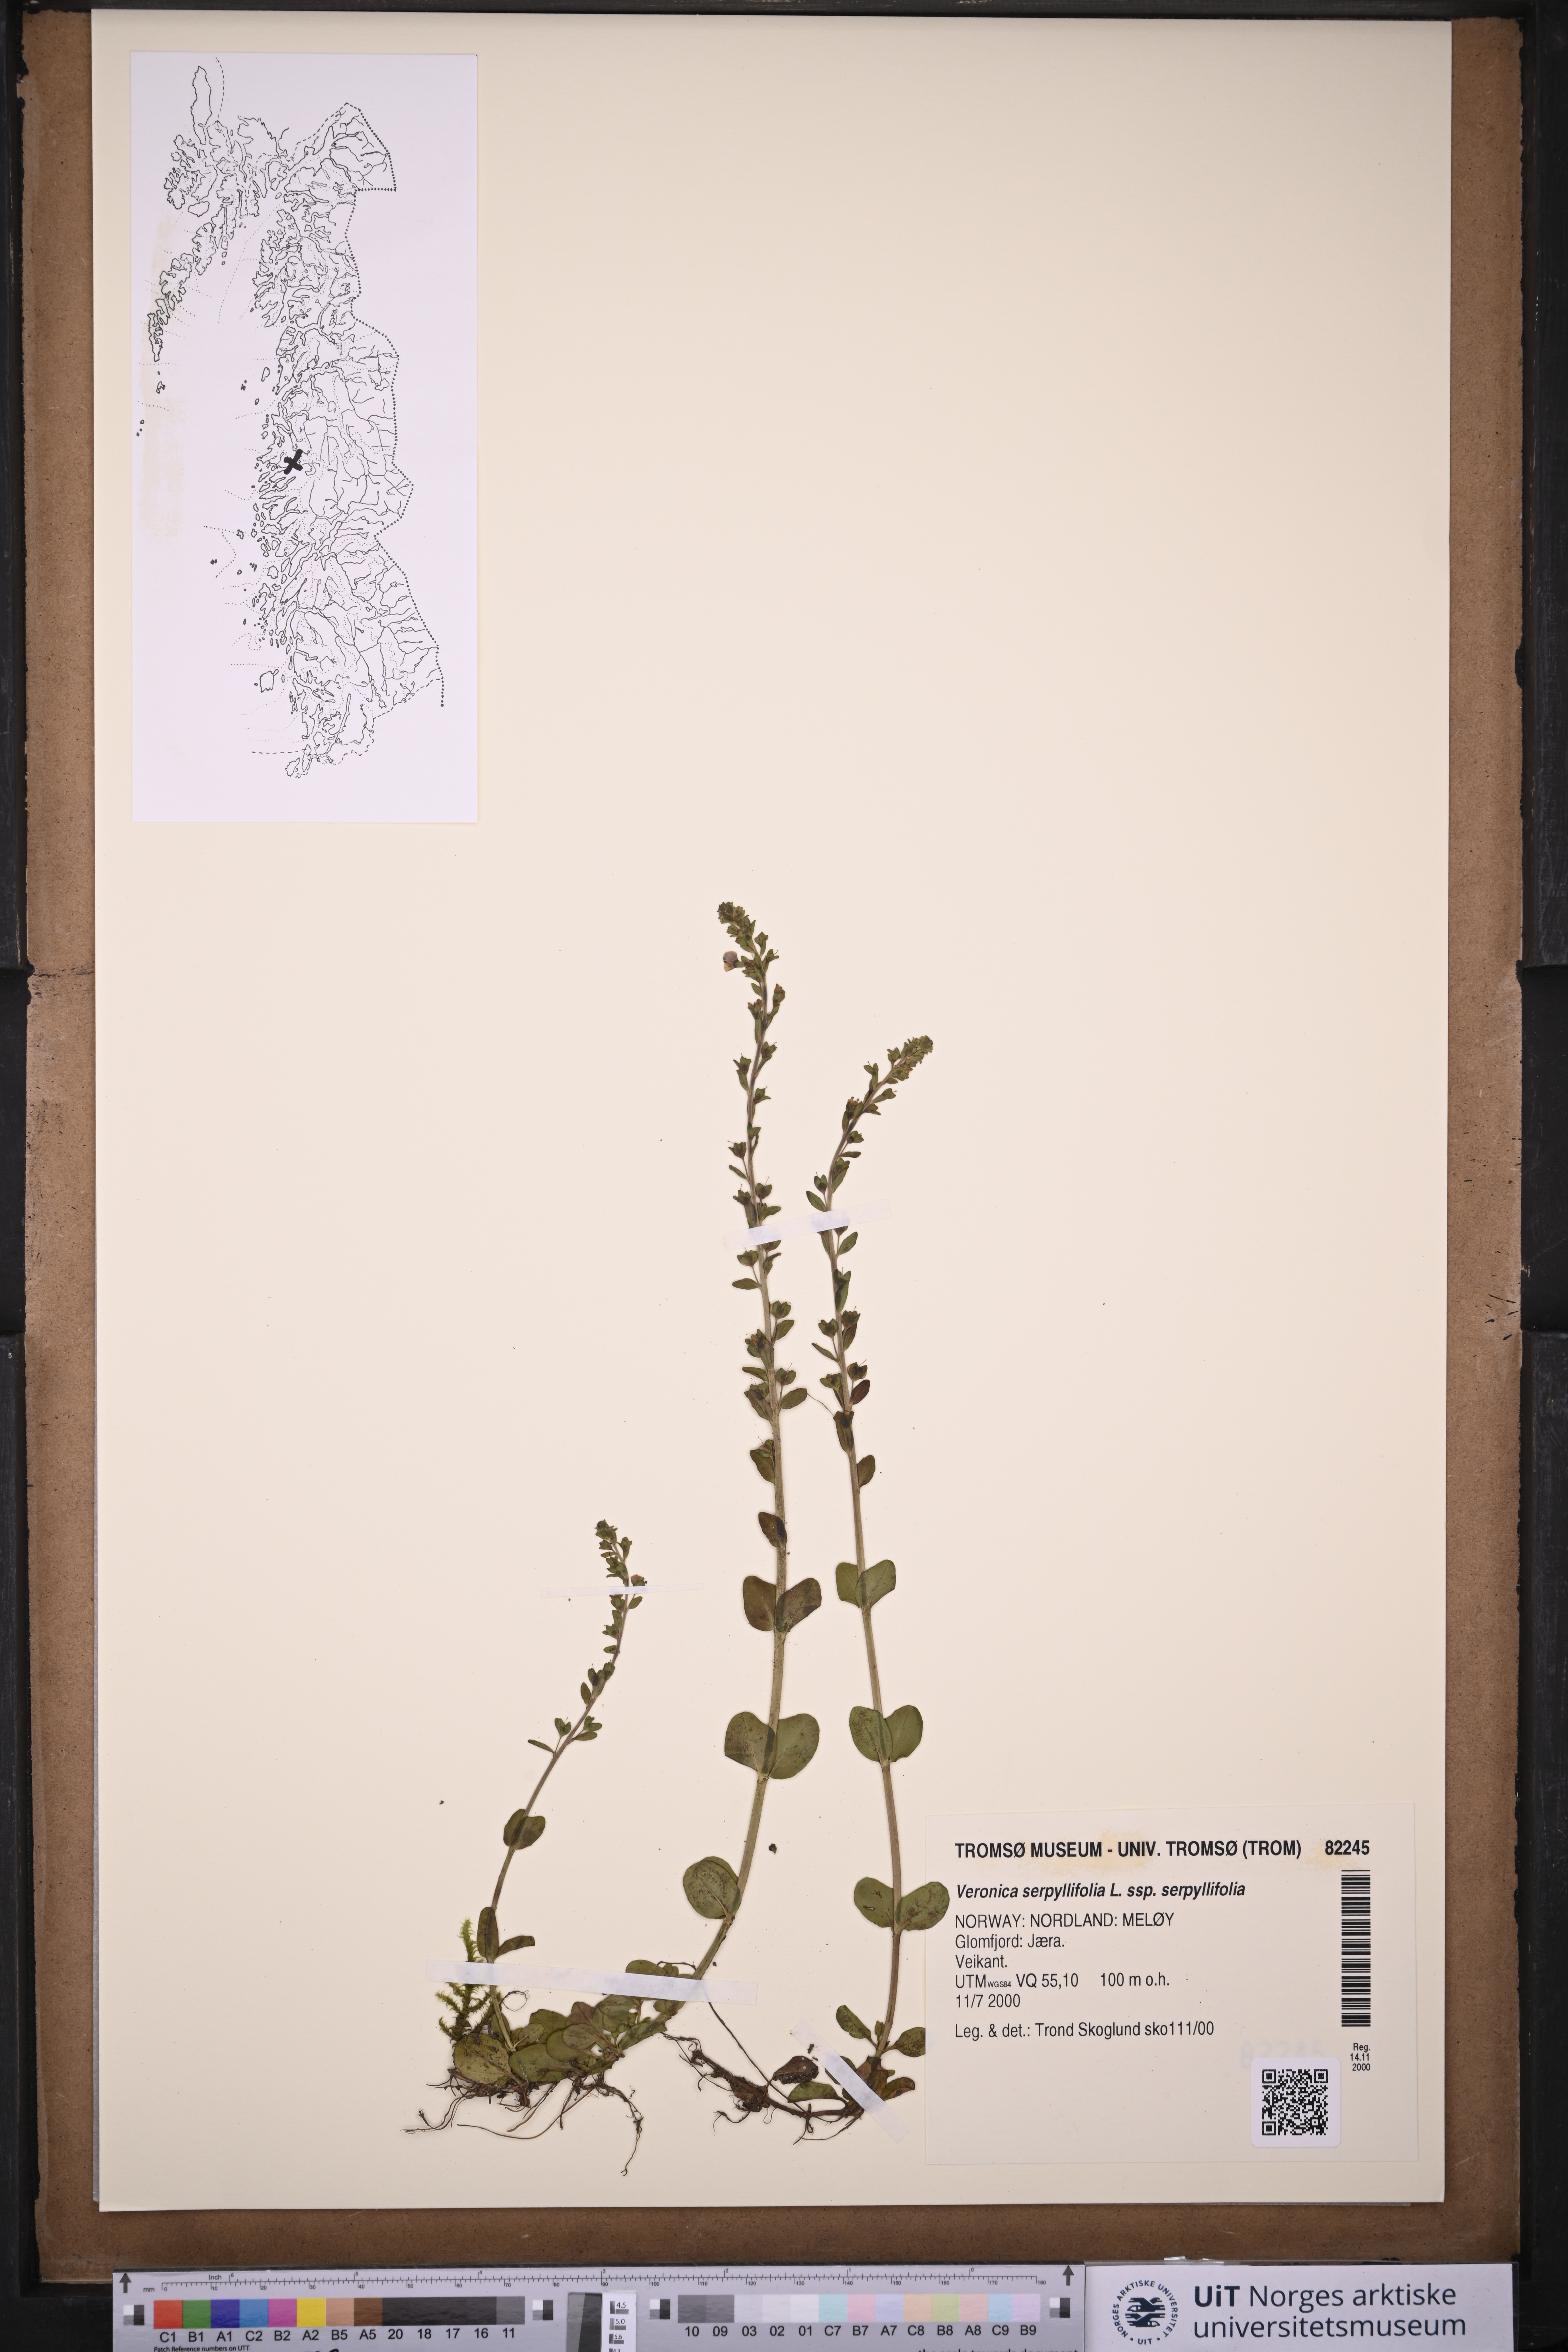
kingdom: Plantae
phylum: Tracheophyta
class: Magnoliopsida
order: Lamiales
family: Plantaginaceae
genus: Veronica
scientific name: Veronica serpyllifolia
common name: Thyme-leaved speedwell
